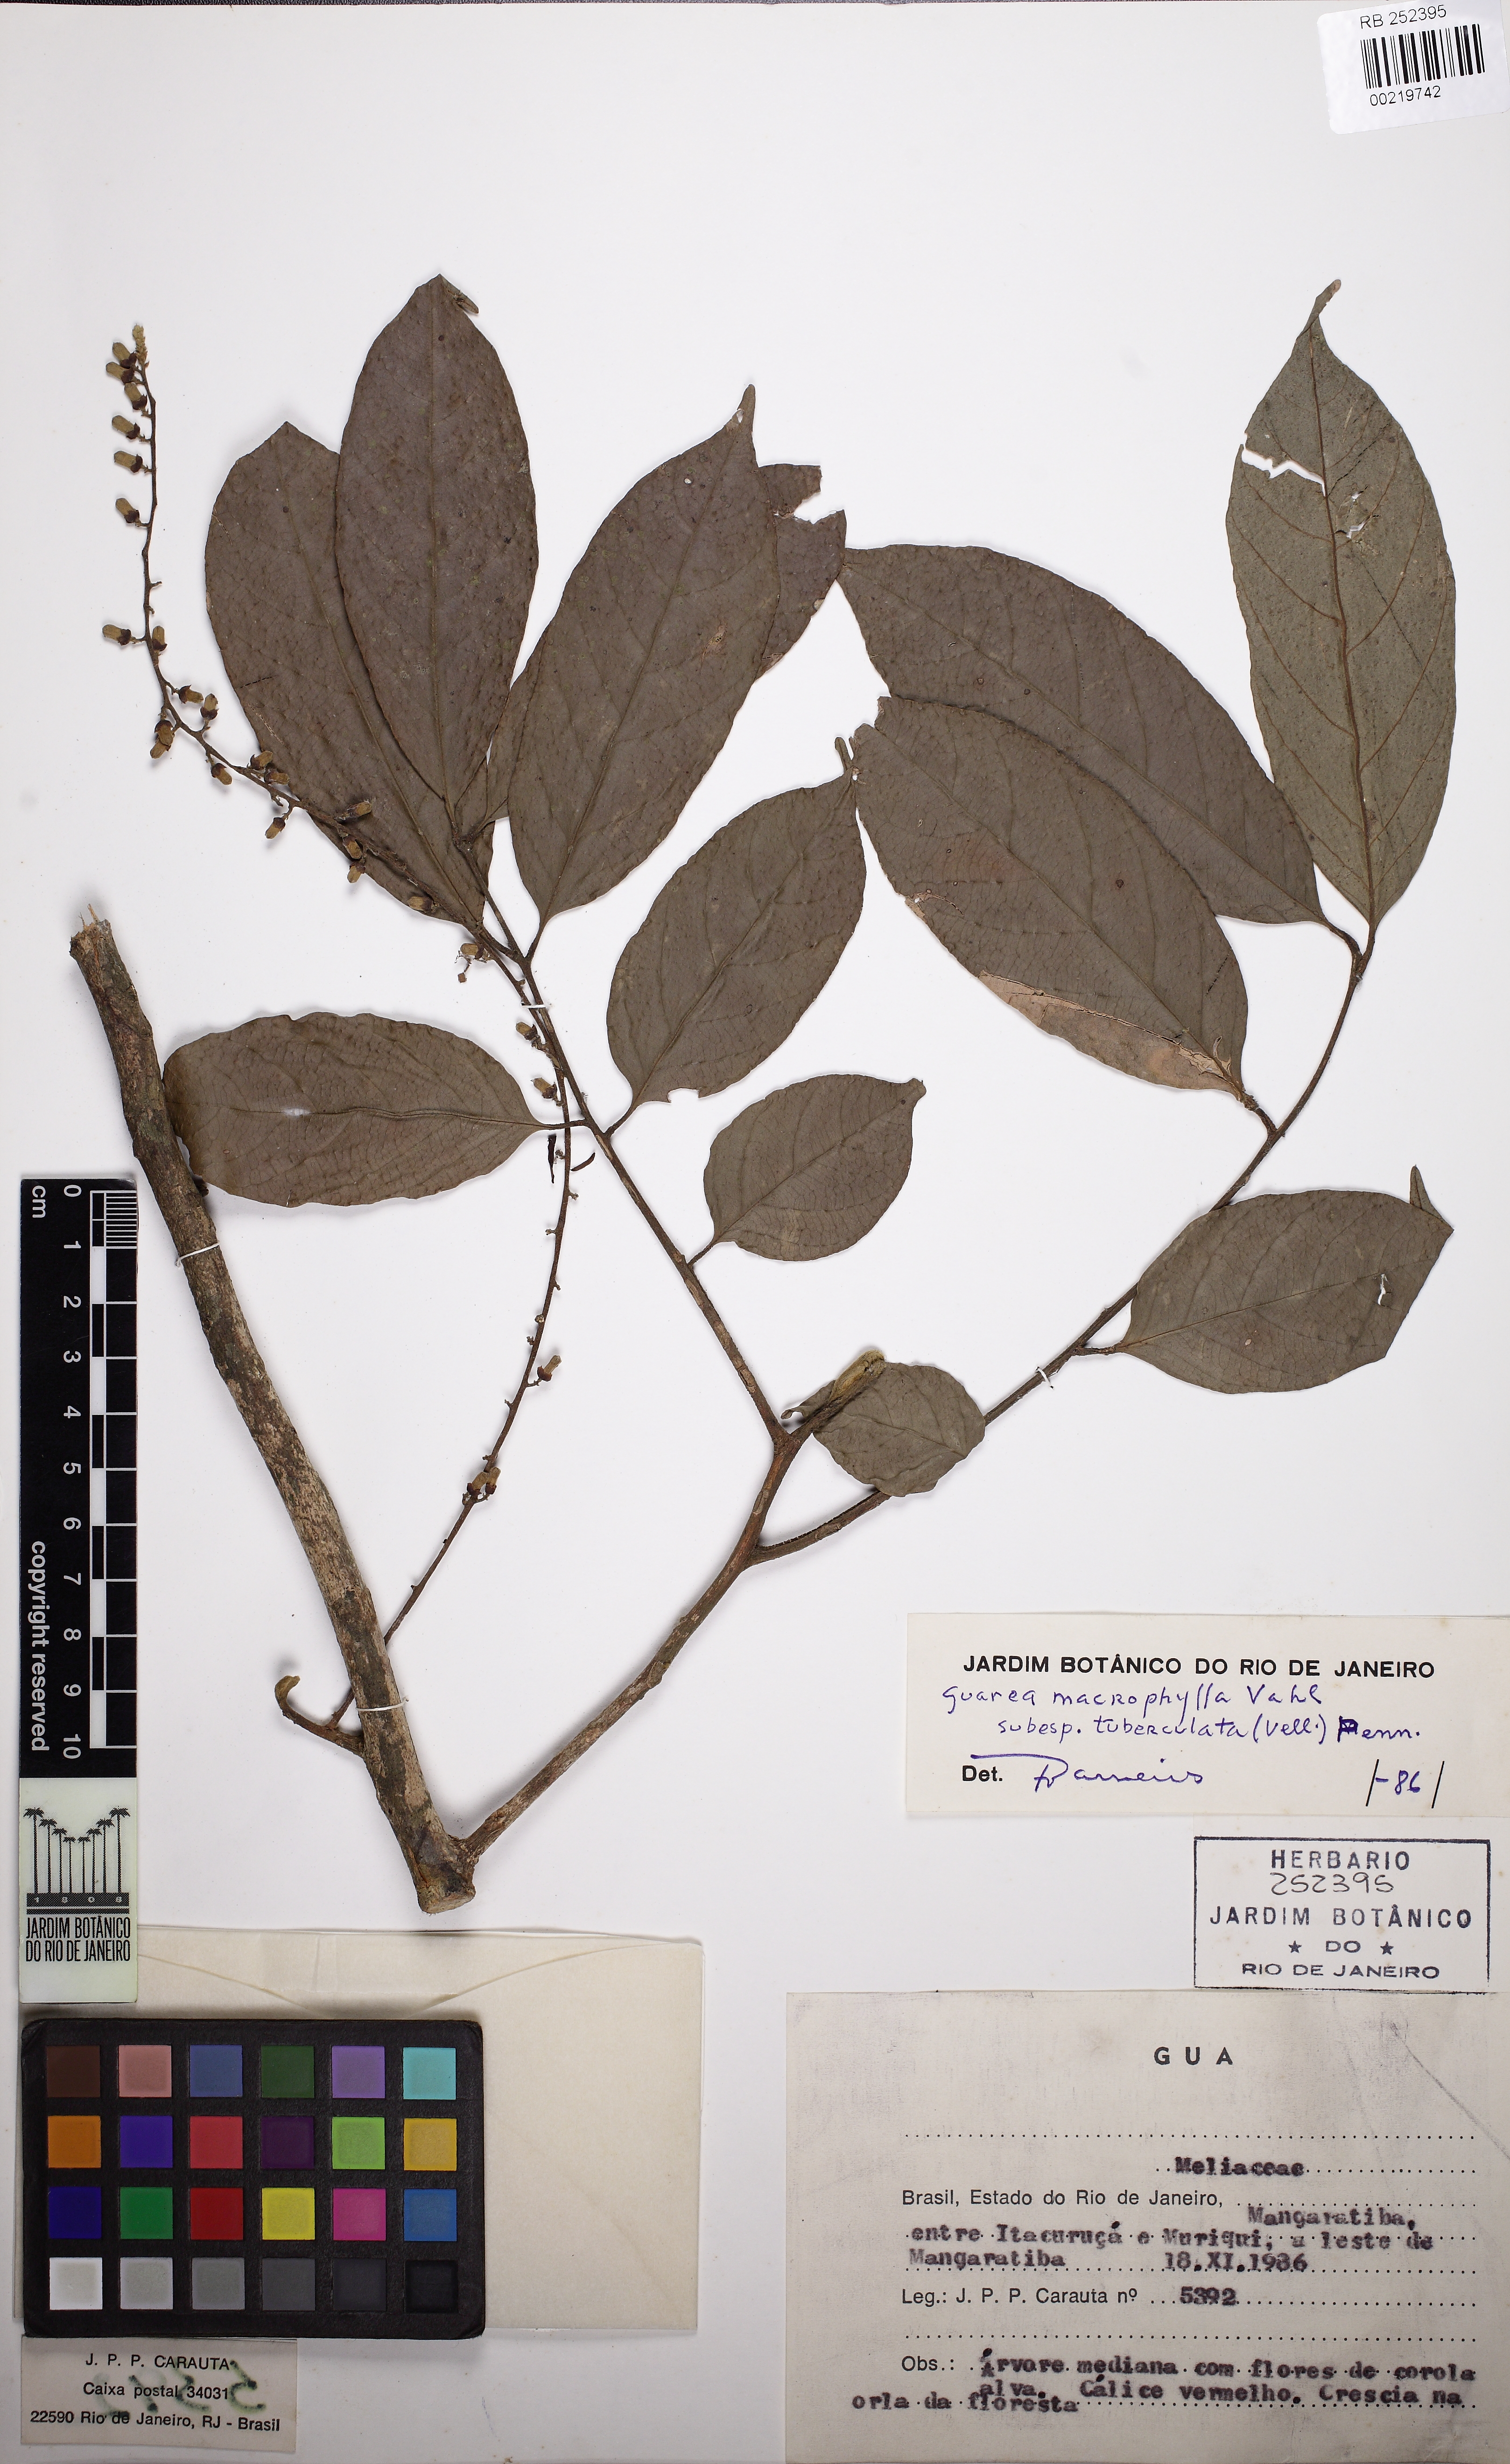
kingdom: Plantae
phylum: Tracheophyta
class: Magnoliopsida
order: Sapindales
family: Meliaceae
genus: Guarea
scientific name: Guarea macrophylla
